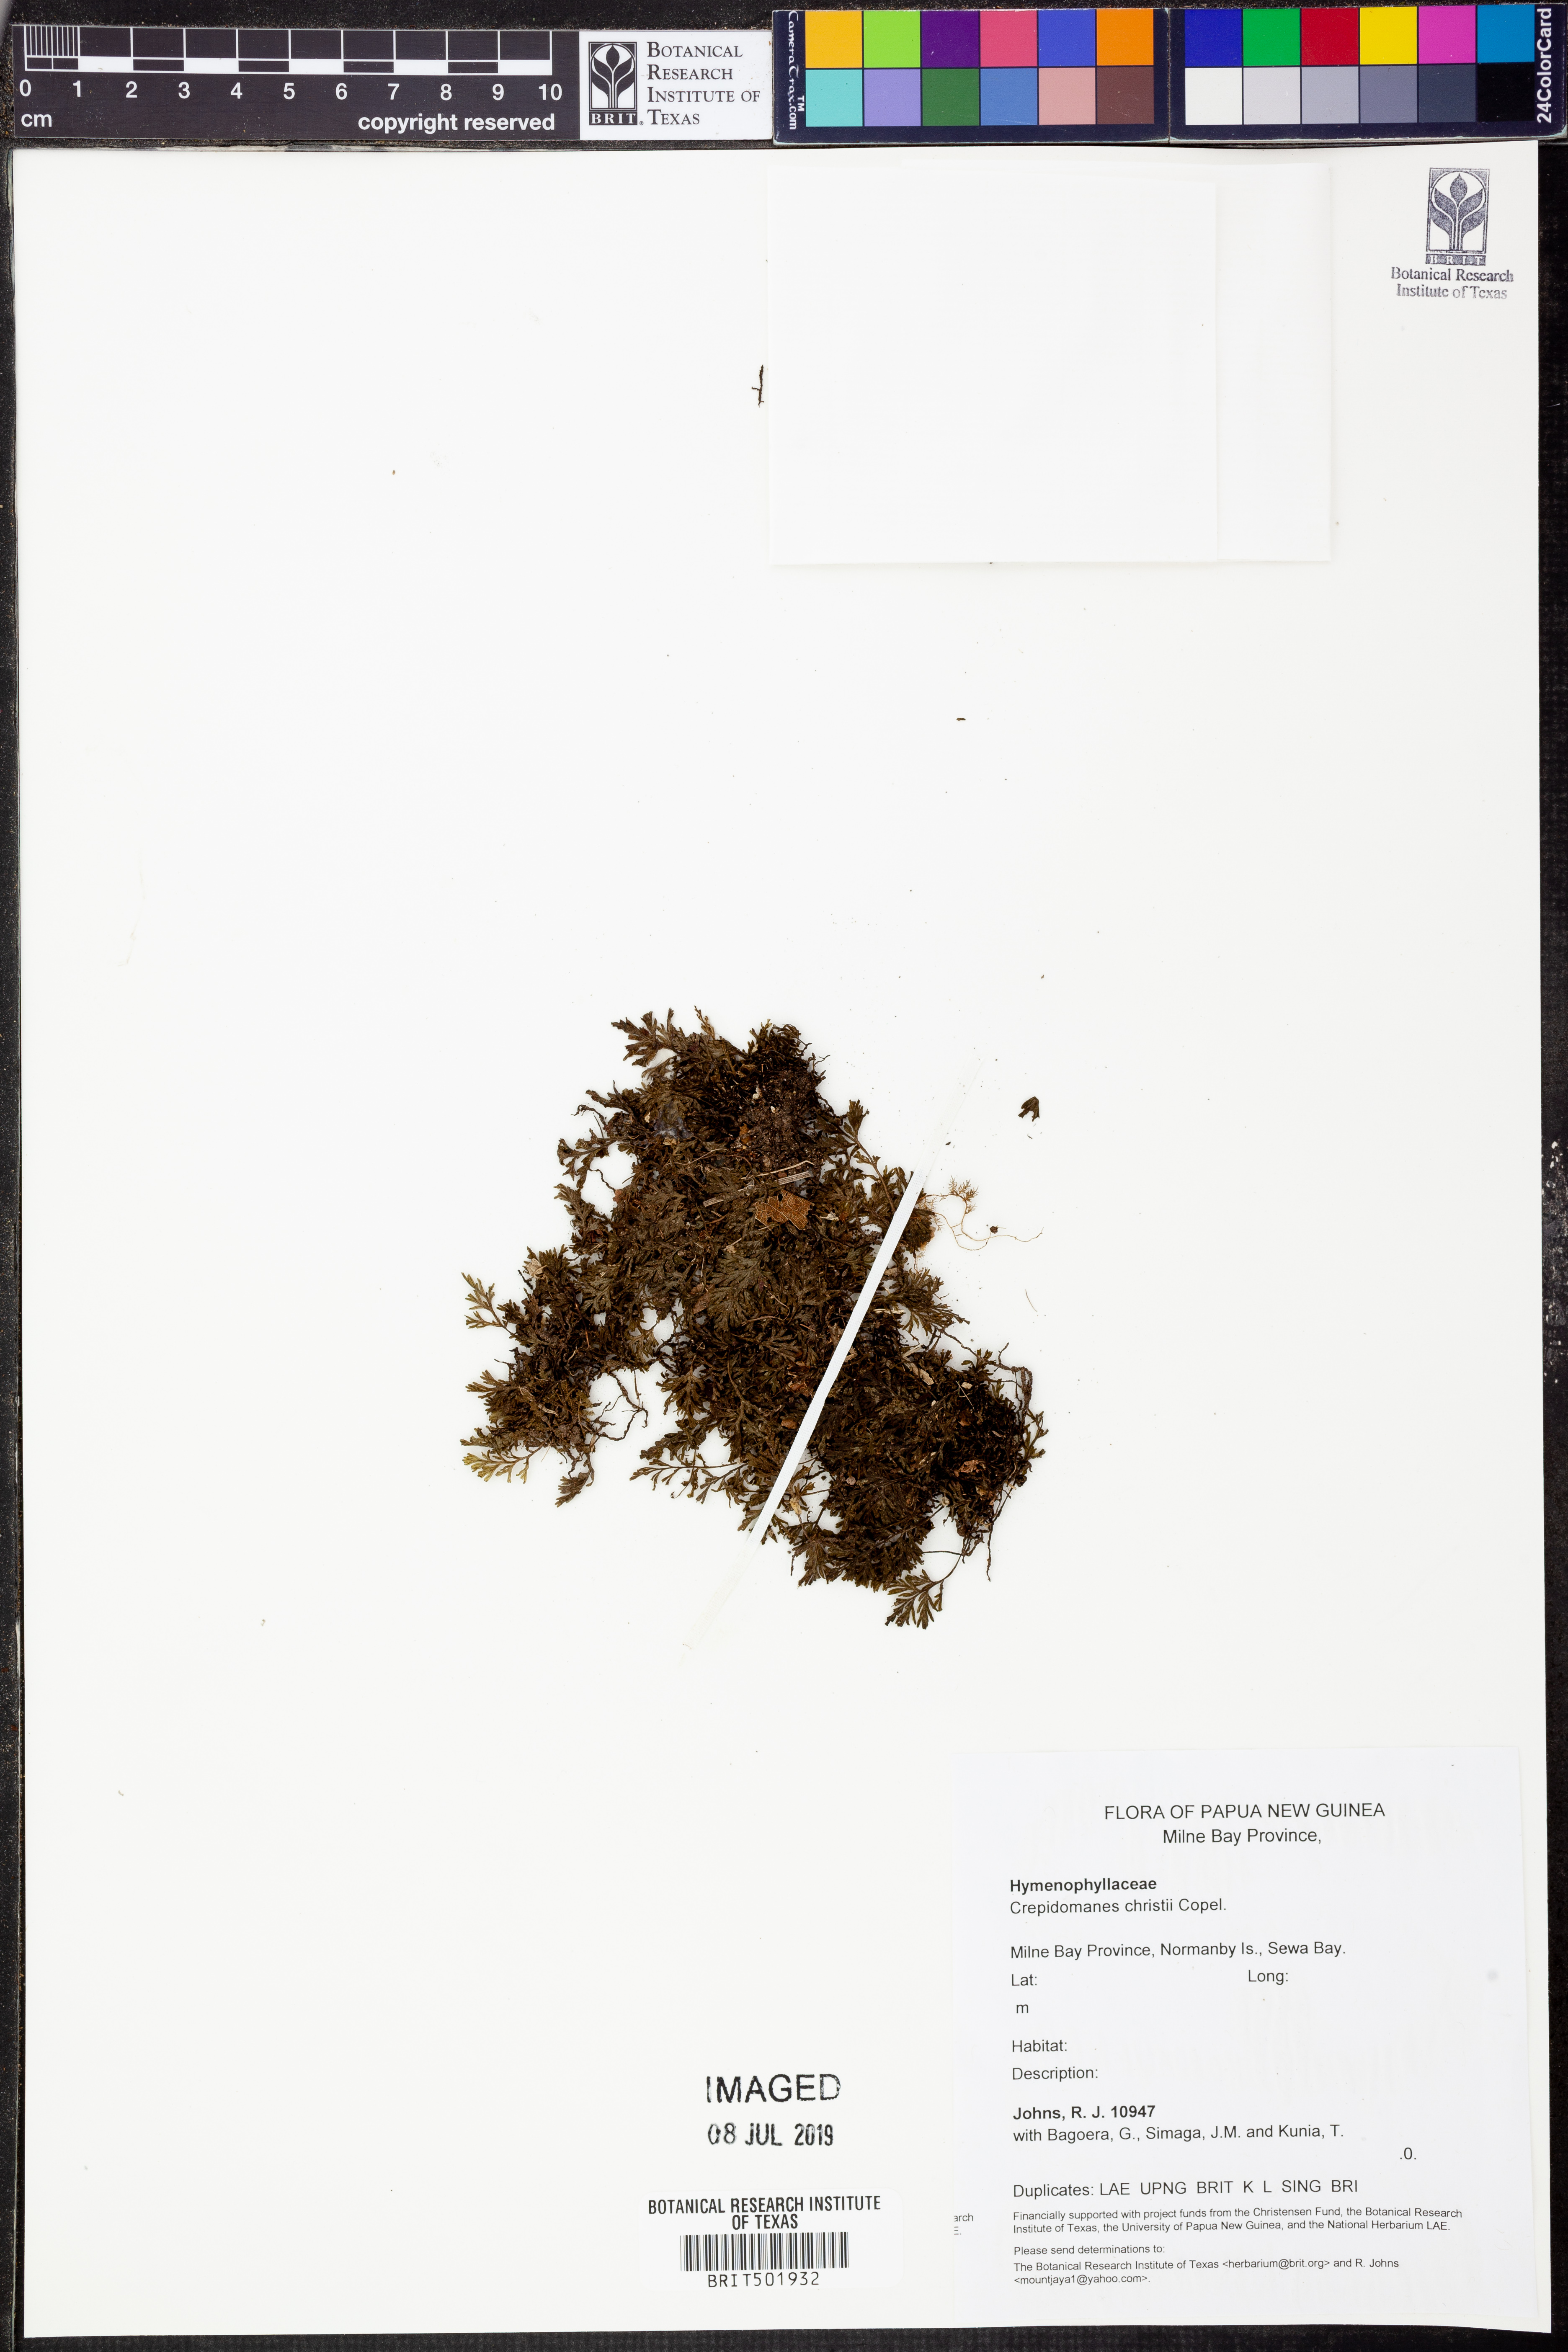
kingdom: Plantae
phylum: Tracheophyta
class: Polypodiopsida
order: Hymenophyllales
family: Hymenophyllaceae
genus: Crepidomanes
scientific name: Crepidomanes christii
